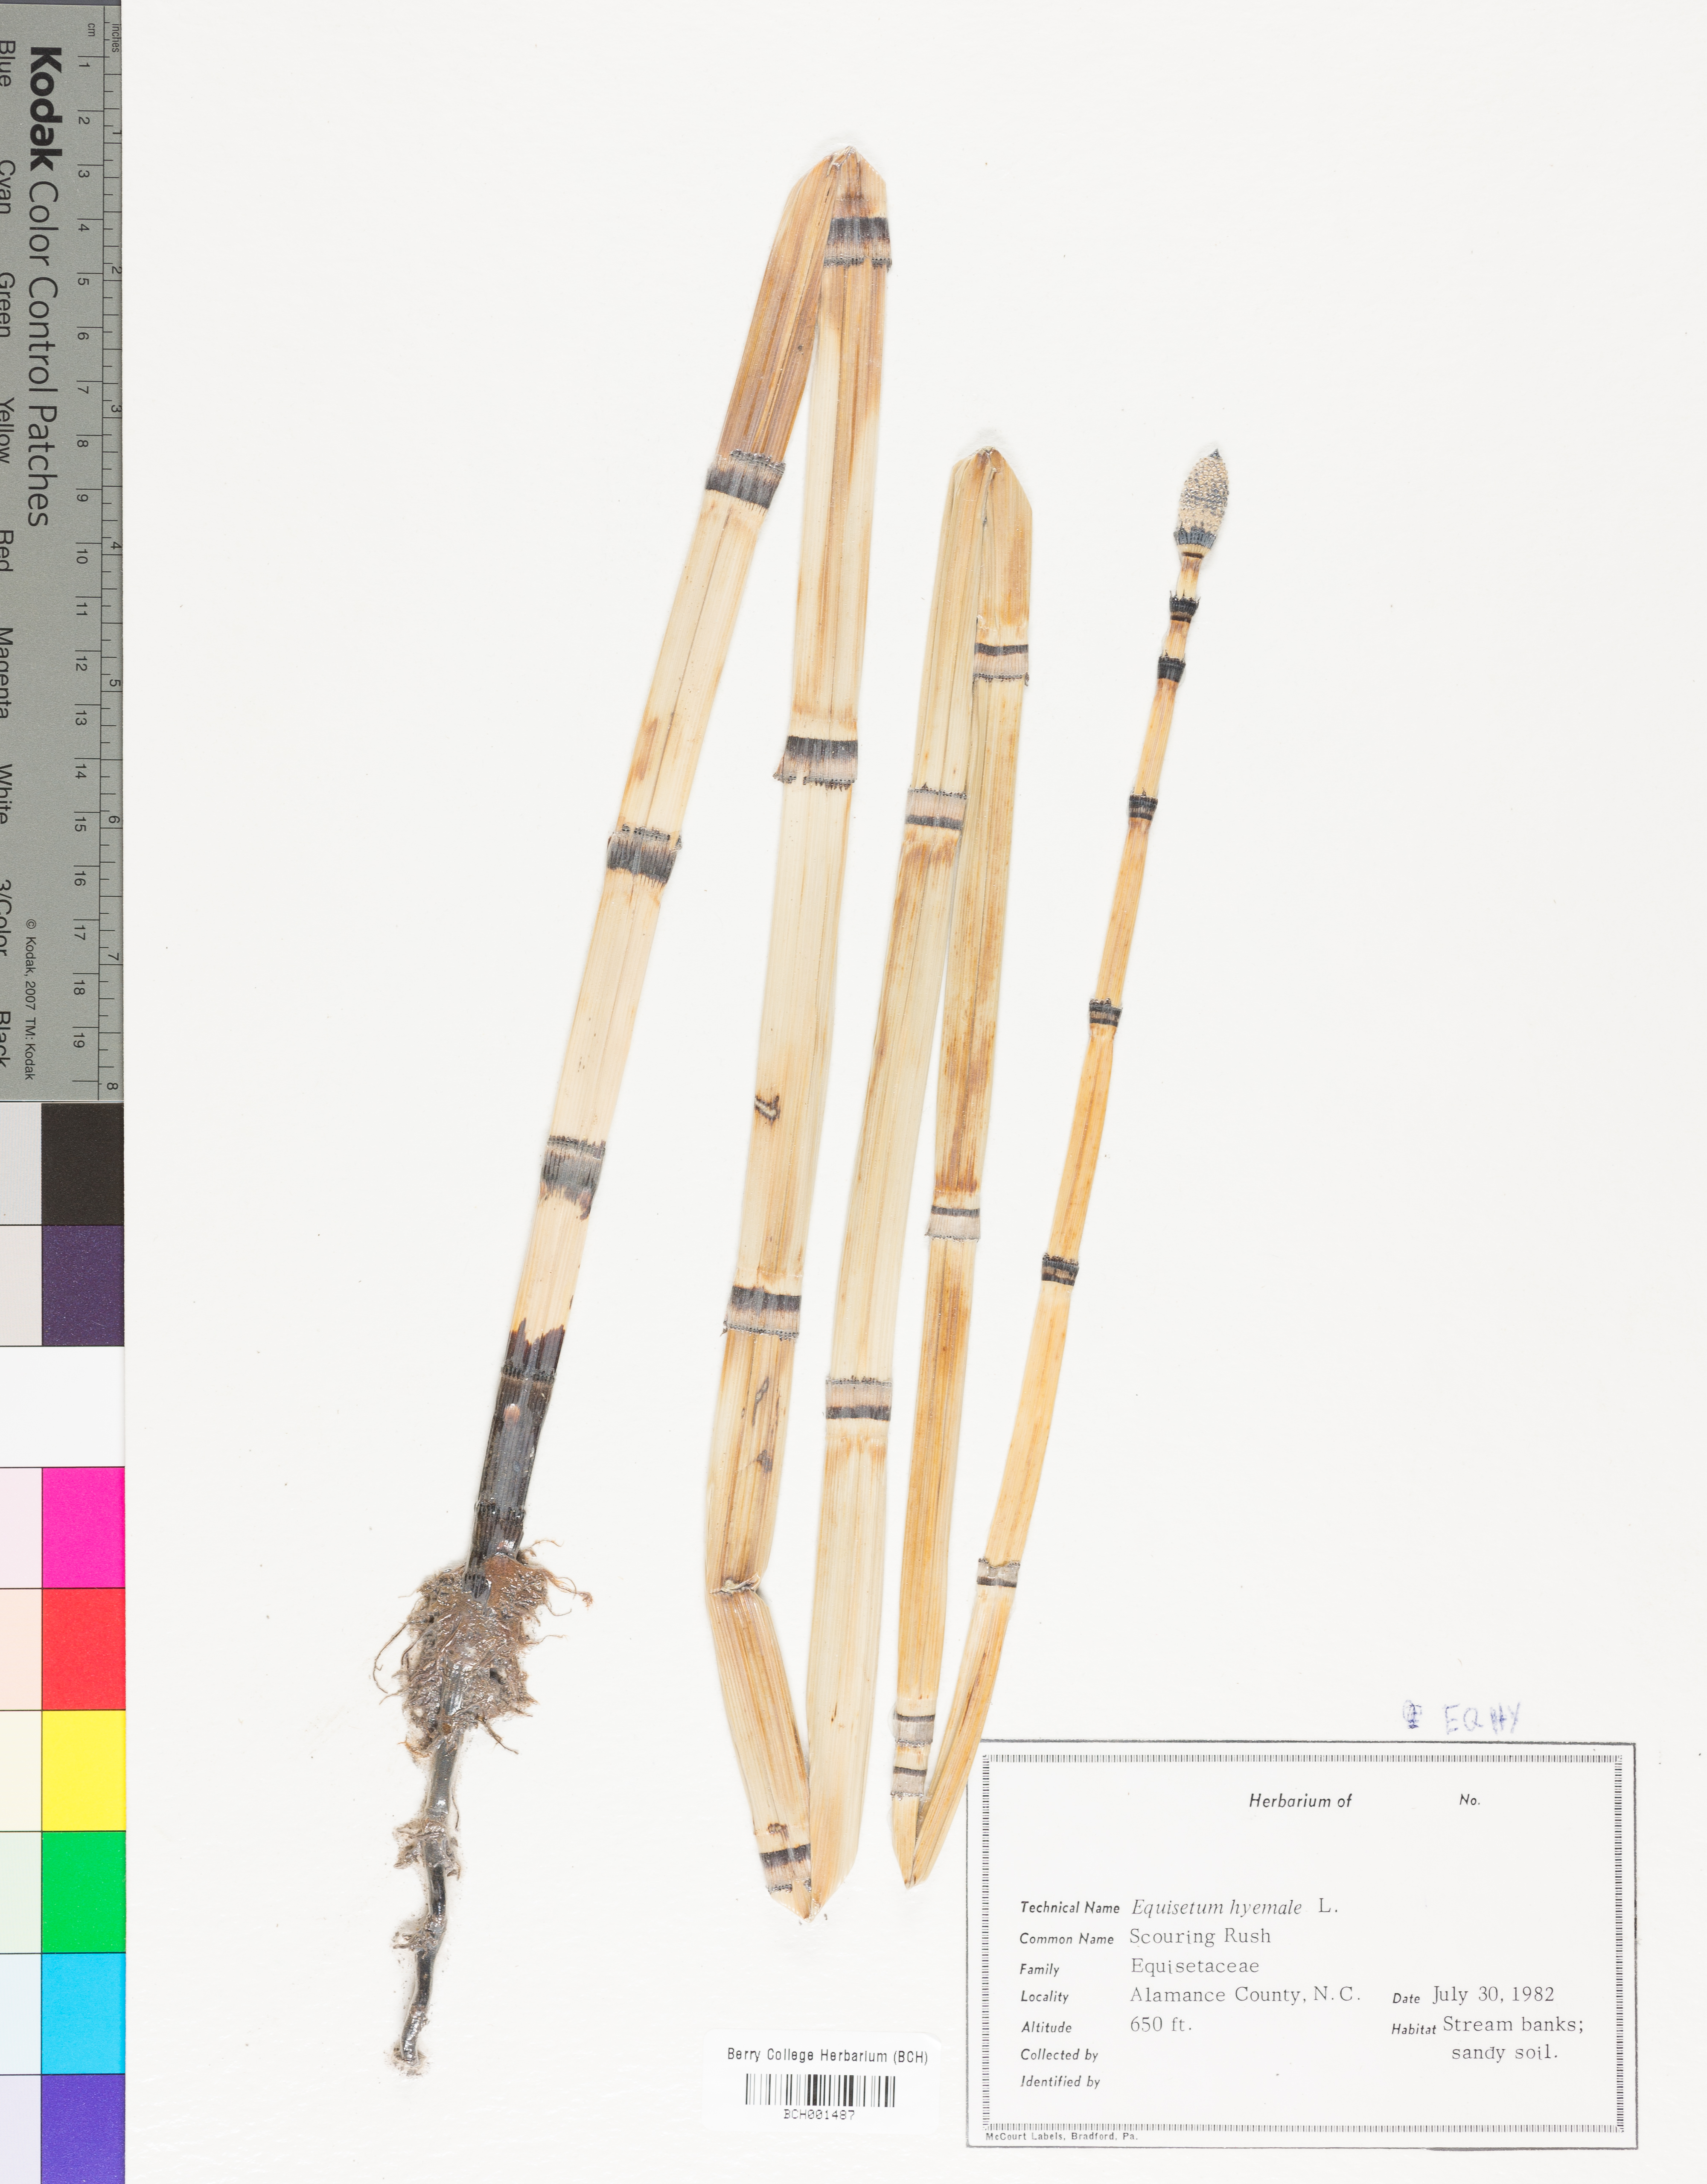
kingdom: Plantae
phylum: Tracheophyta
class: Polypodiopsida
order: Equisetales
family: Equisetaceae
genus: Equisetum
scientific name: Equisetum hyemale
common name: Rough horsetail
